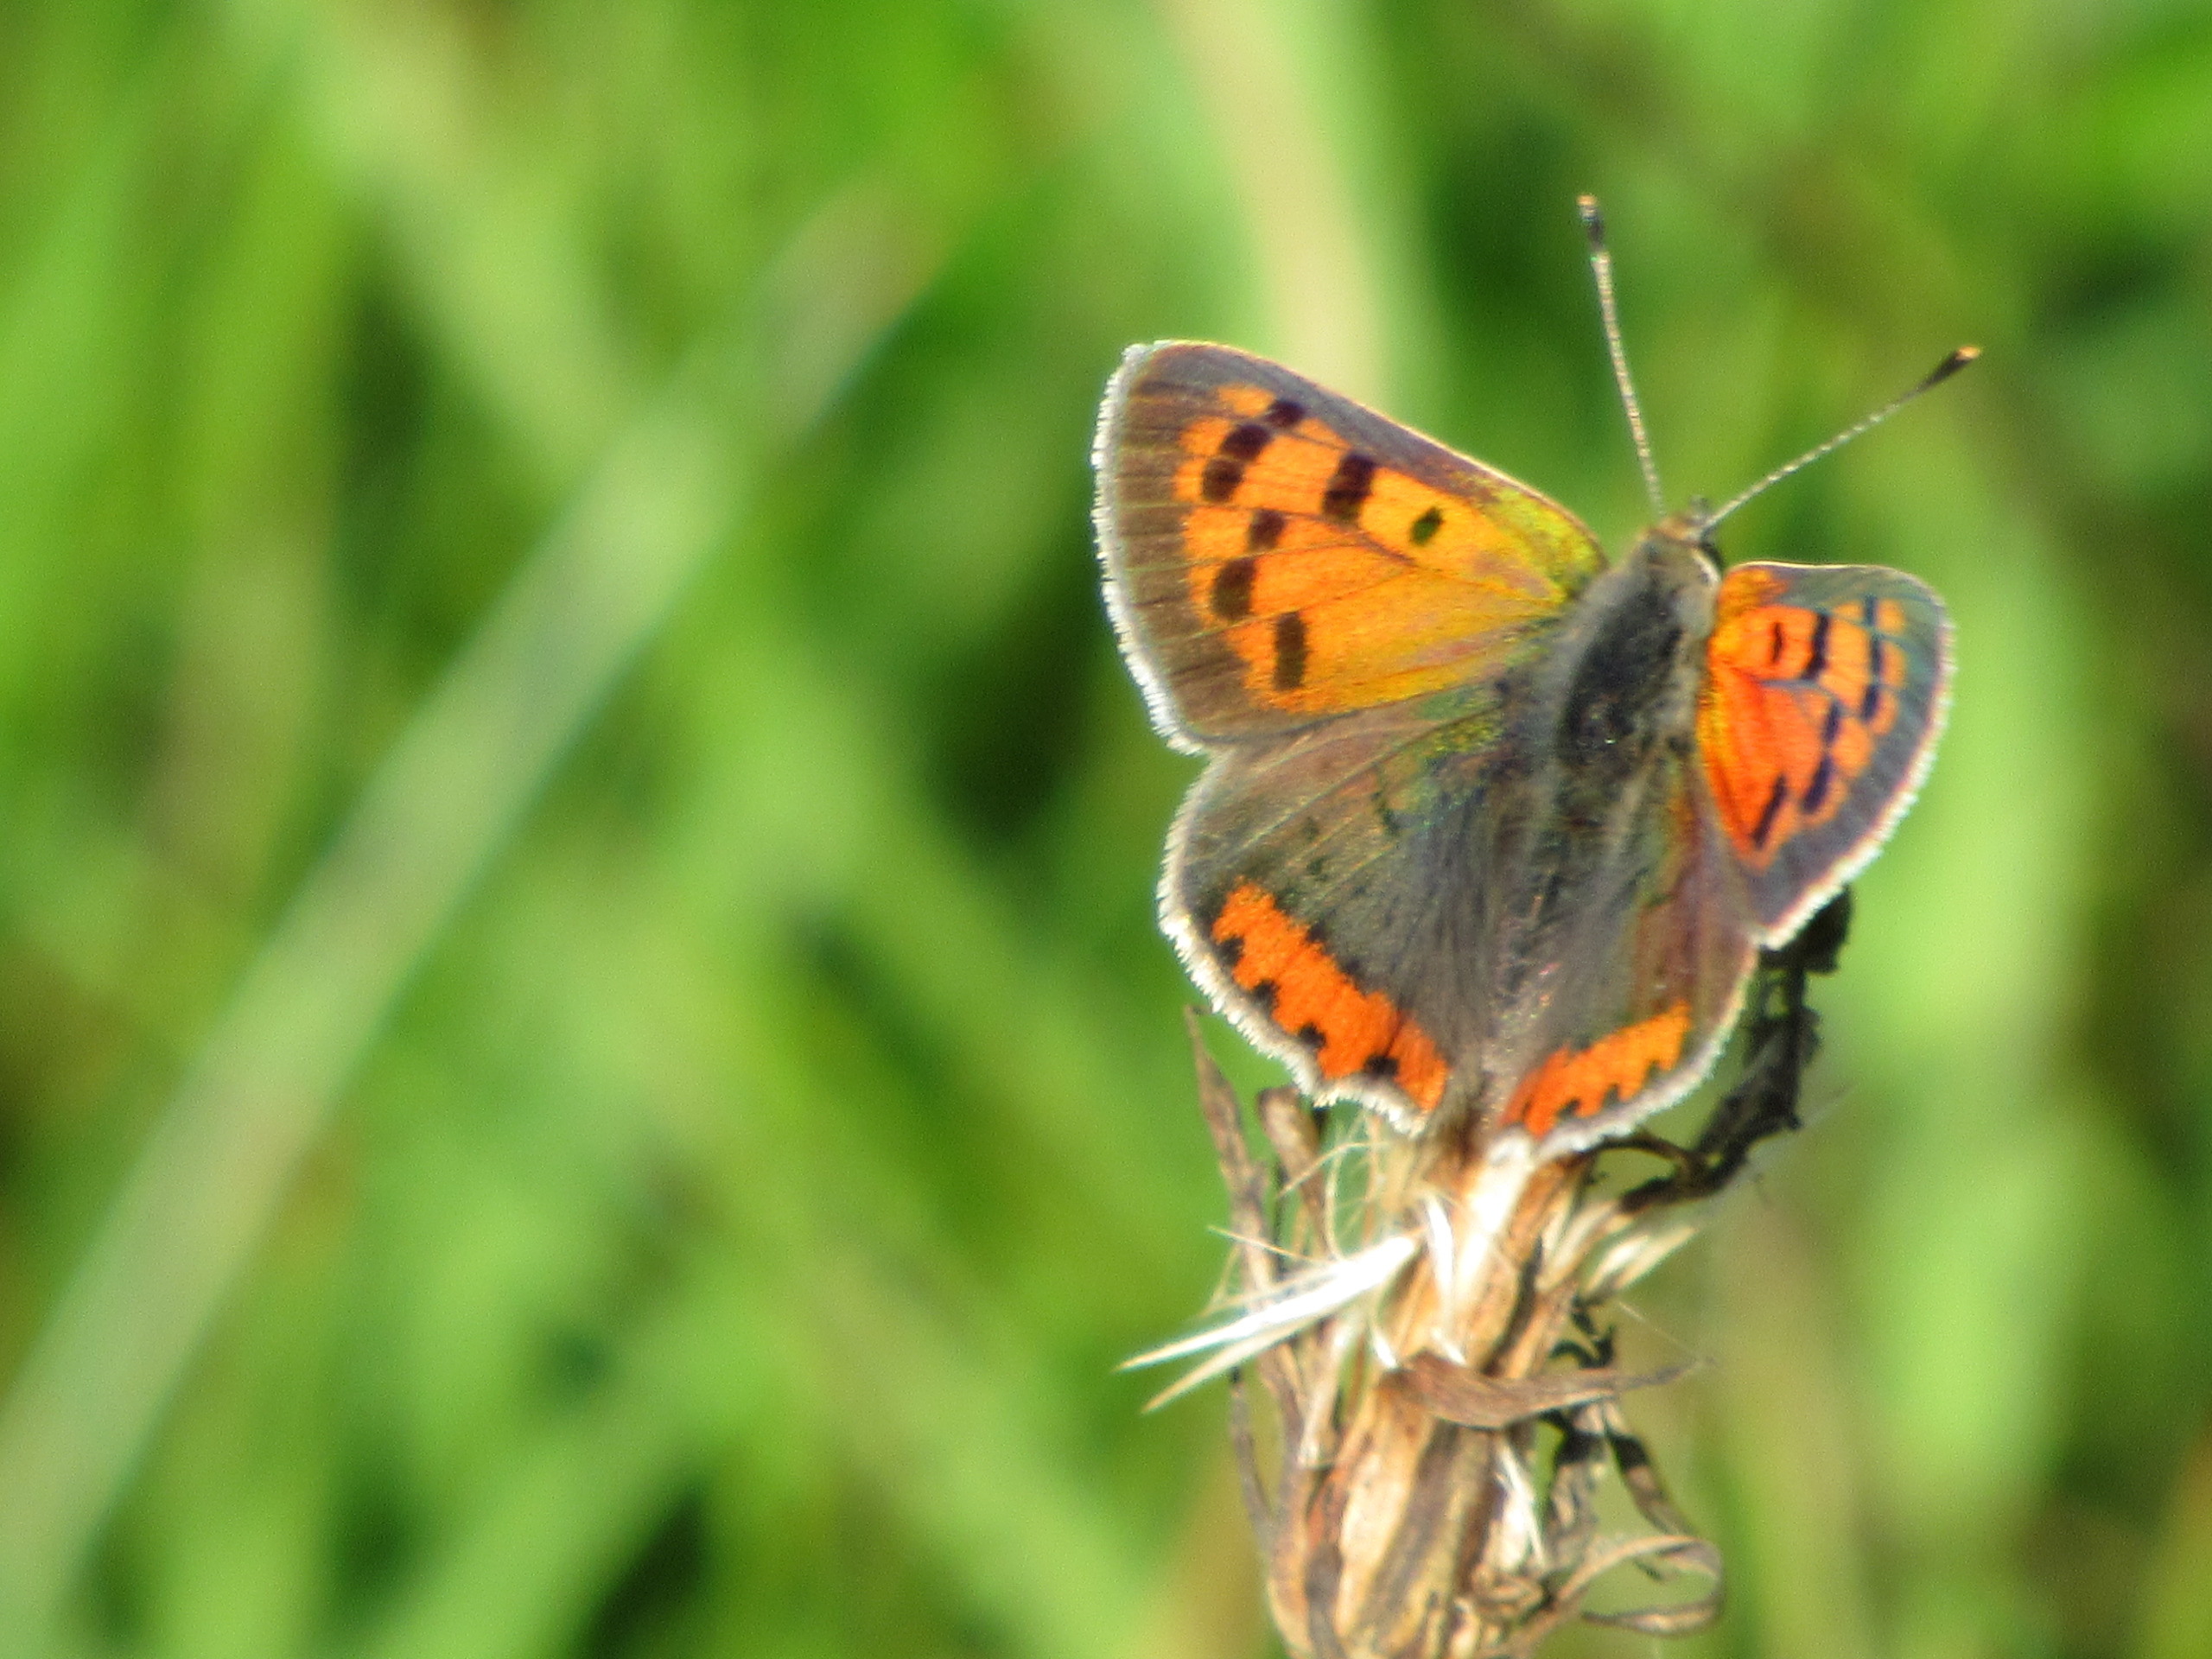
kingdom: Animalia
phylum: Arthropoda
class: Insecta
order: Lepidoptera
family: Lycaenidae
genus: Lycaena
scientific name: Lycaena phlaeas
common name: Lille ildfugl
